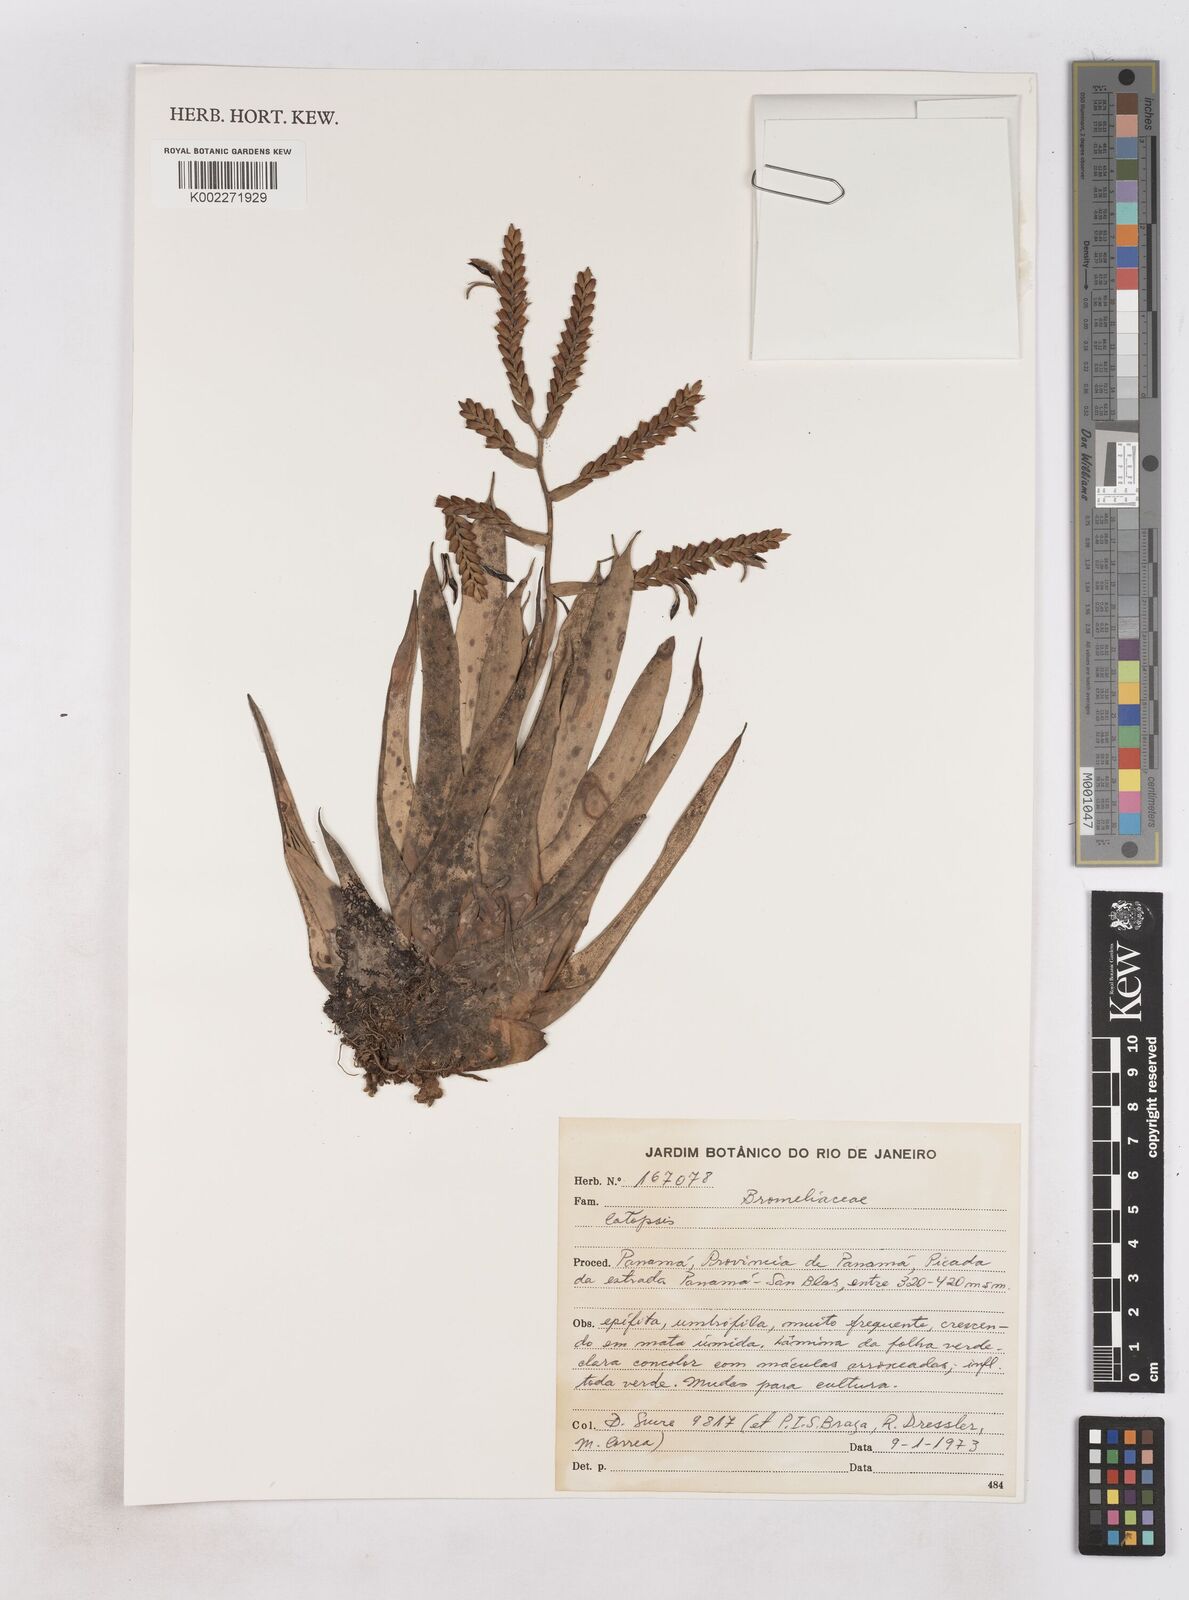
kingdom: Plantae
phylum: Tracheophyta
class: Liliopsida
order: Poales
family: Bromeliaceae
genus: Catopsis
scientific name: Catopsis
